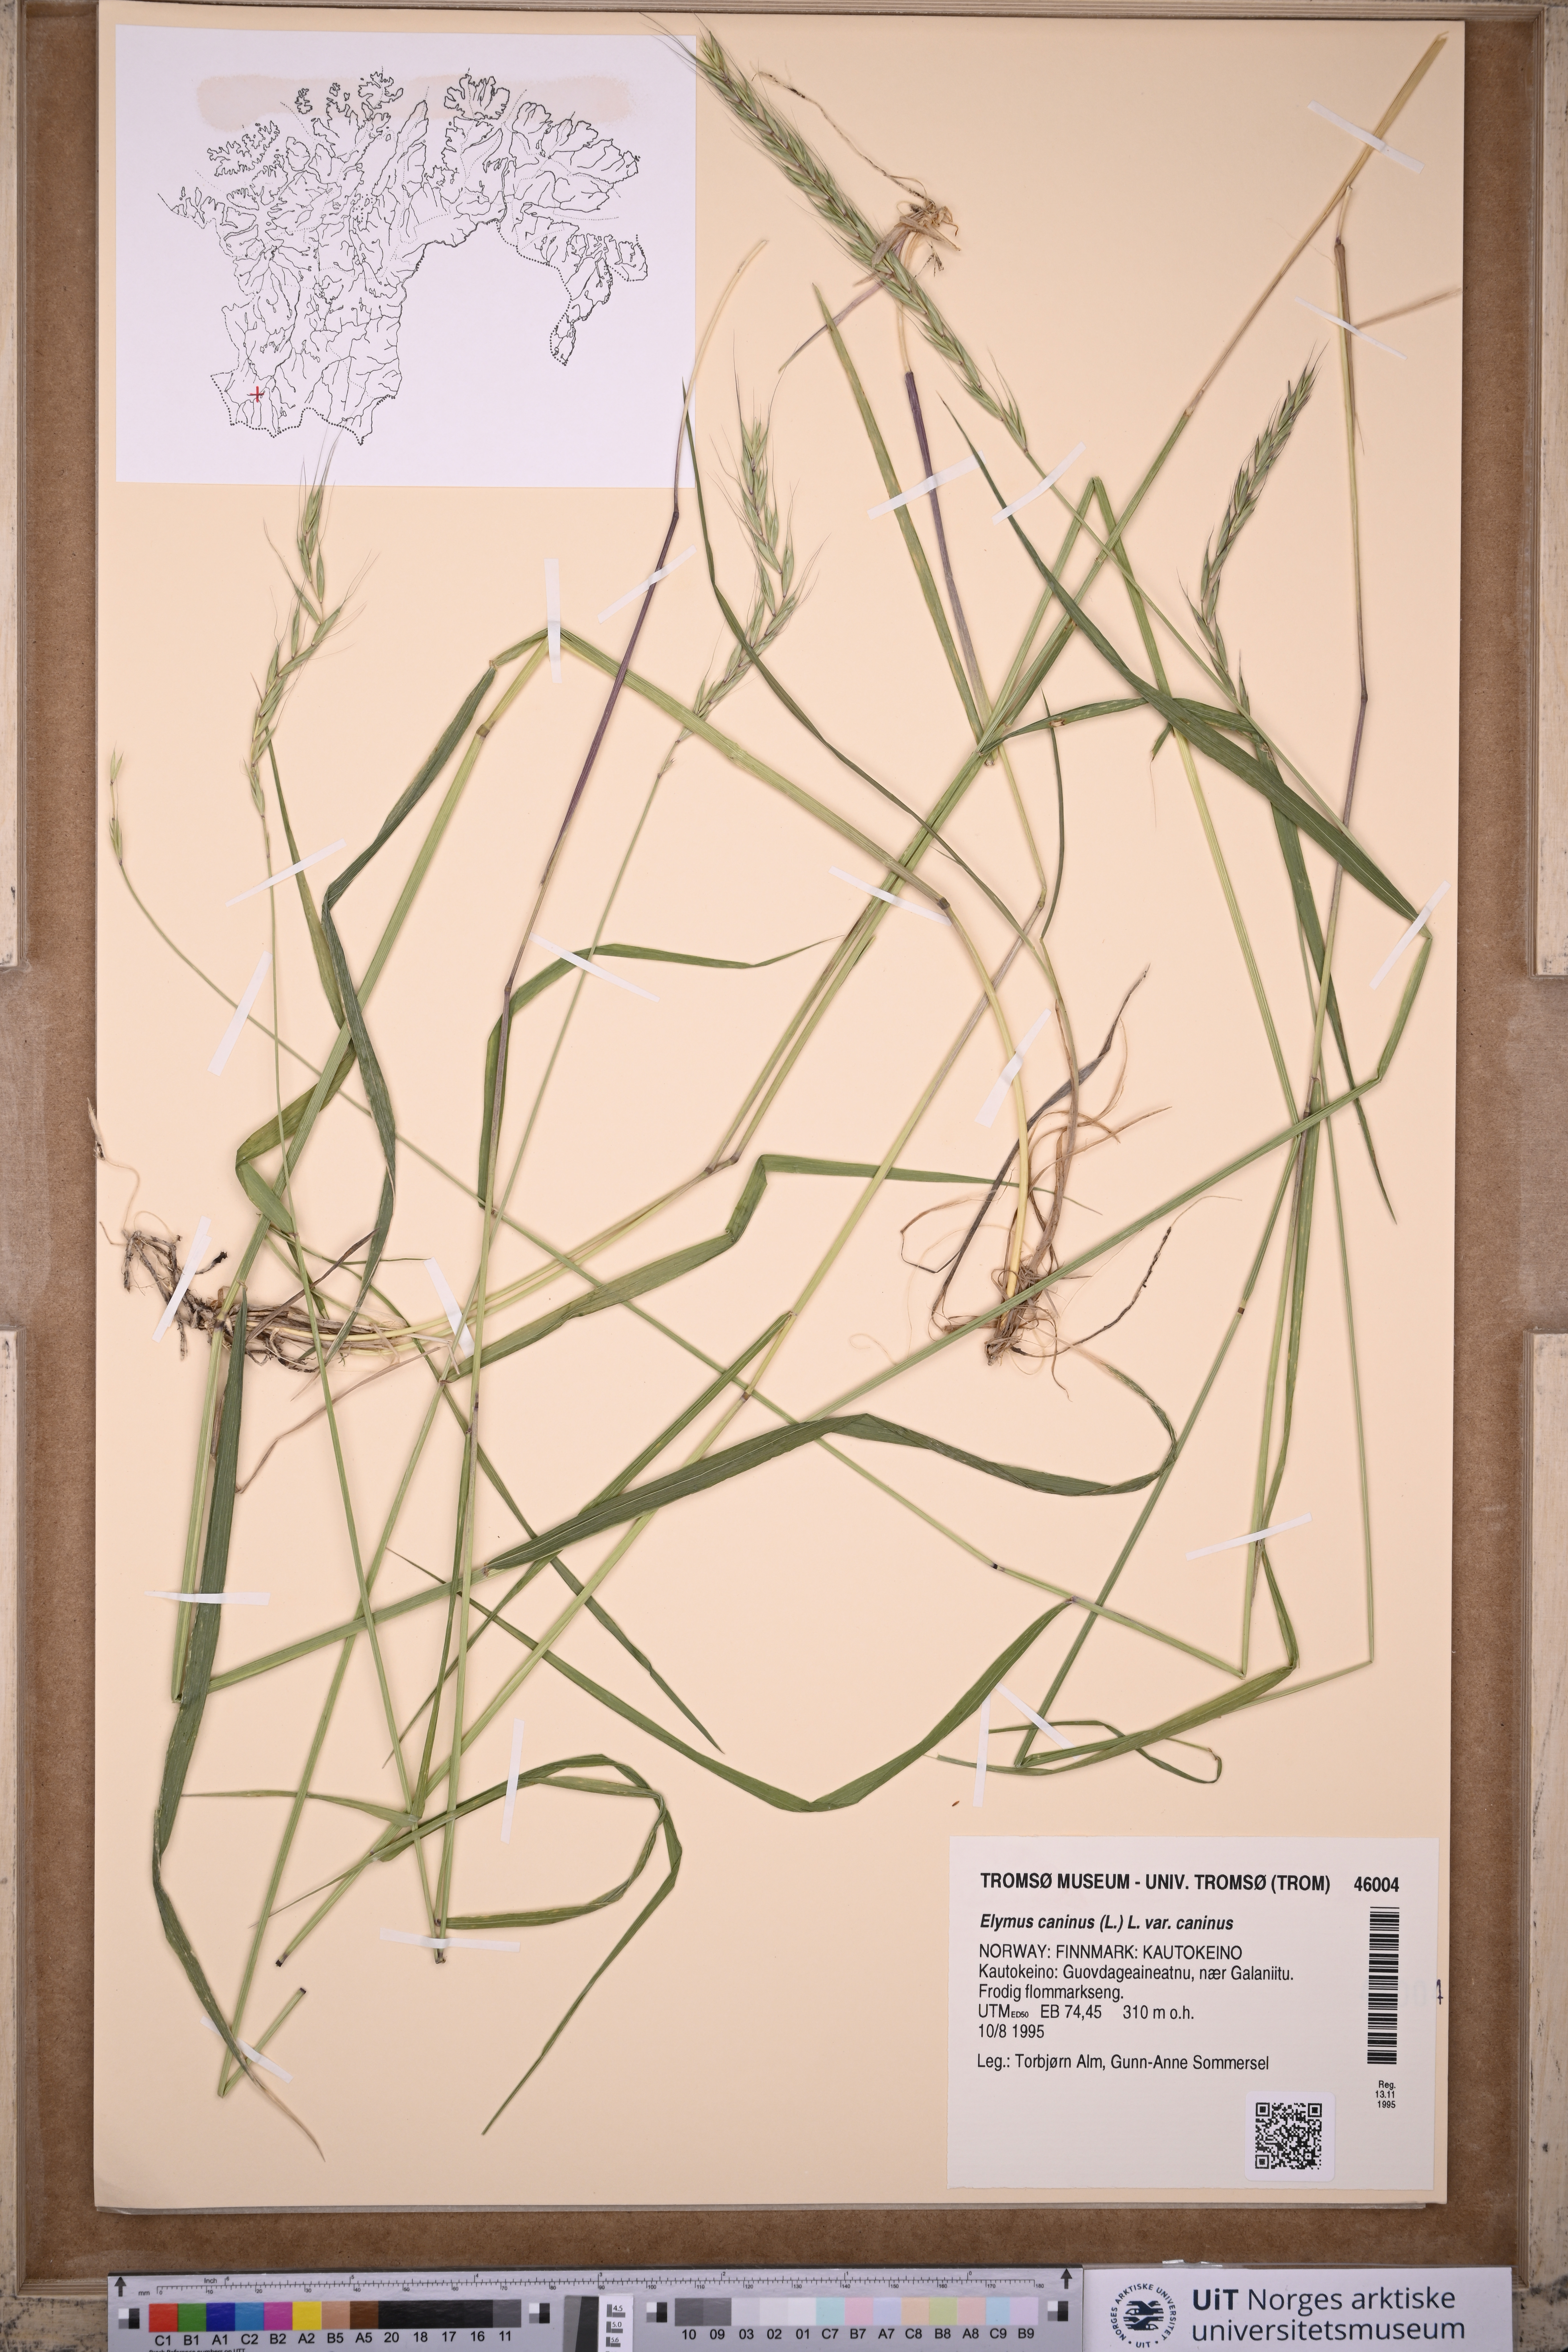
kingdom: Plantae
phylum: Tracheophyta
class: Liliopsida
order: Poales
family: Poaceae
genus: Elymus
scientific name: Elymus caninus
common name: Bearded couch
